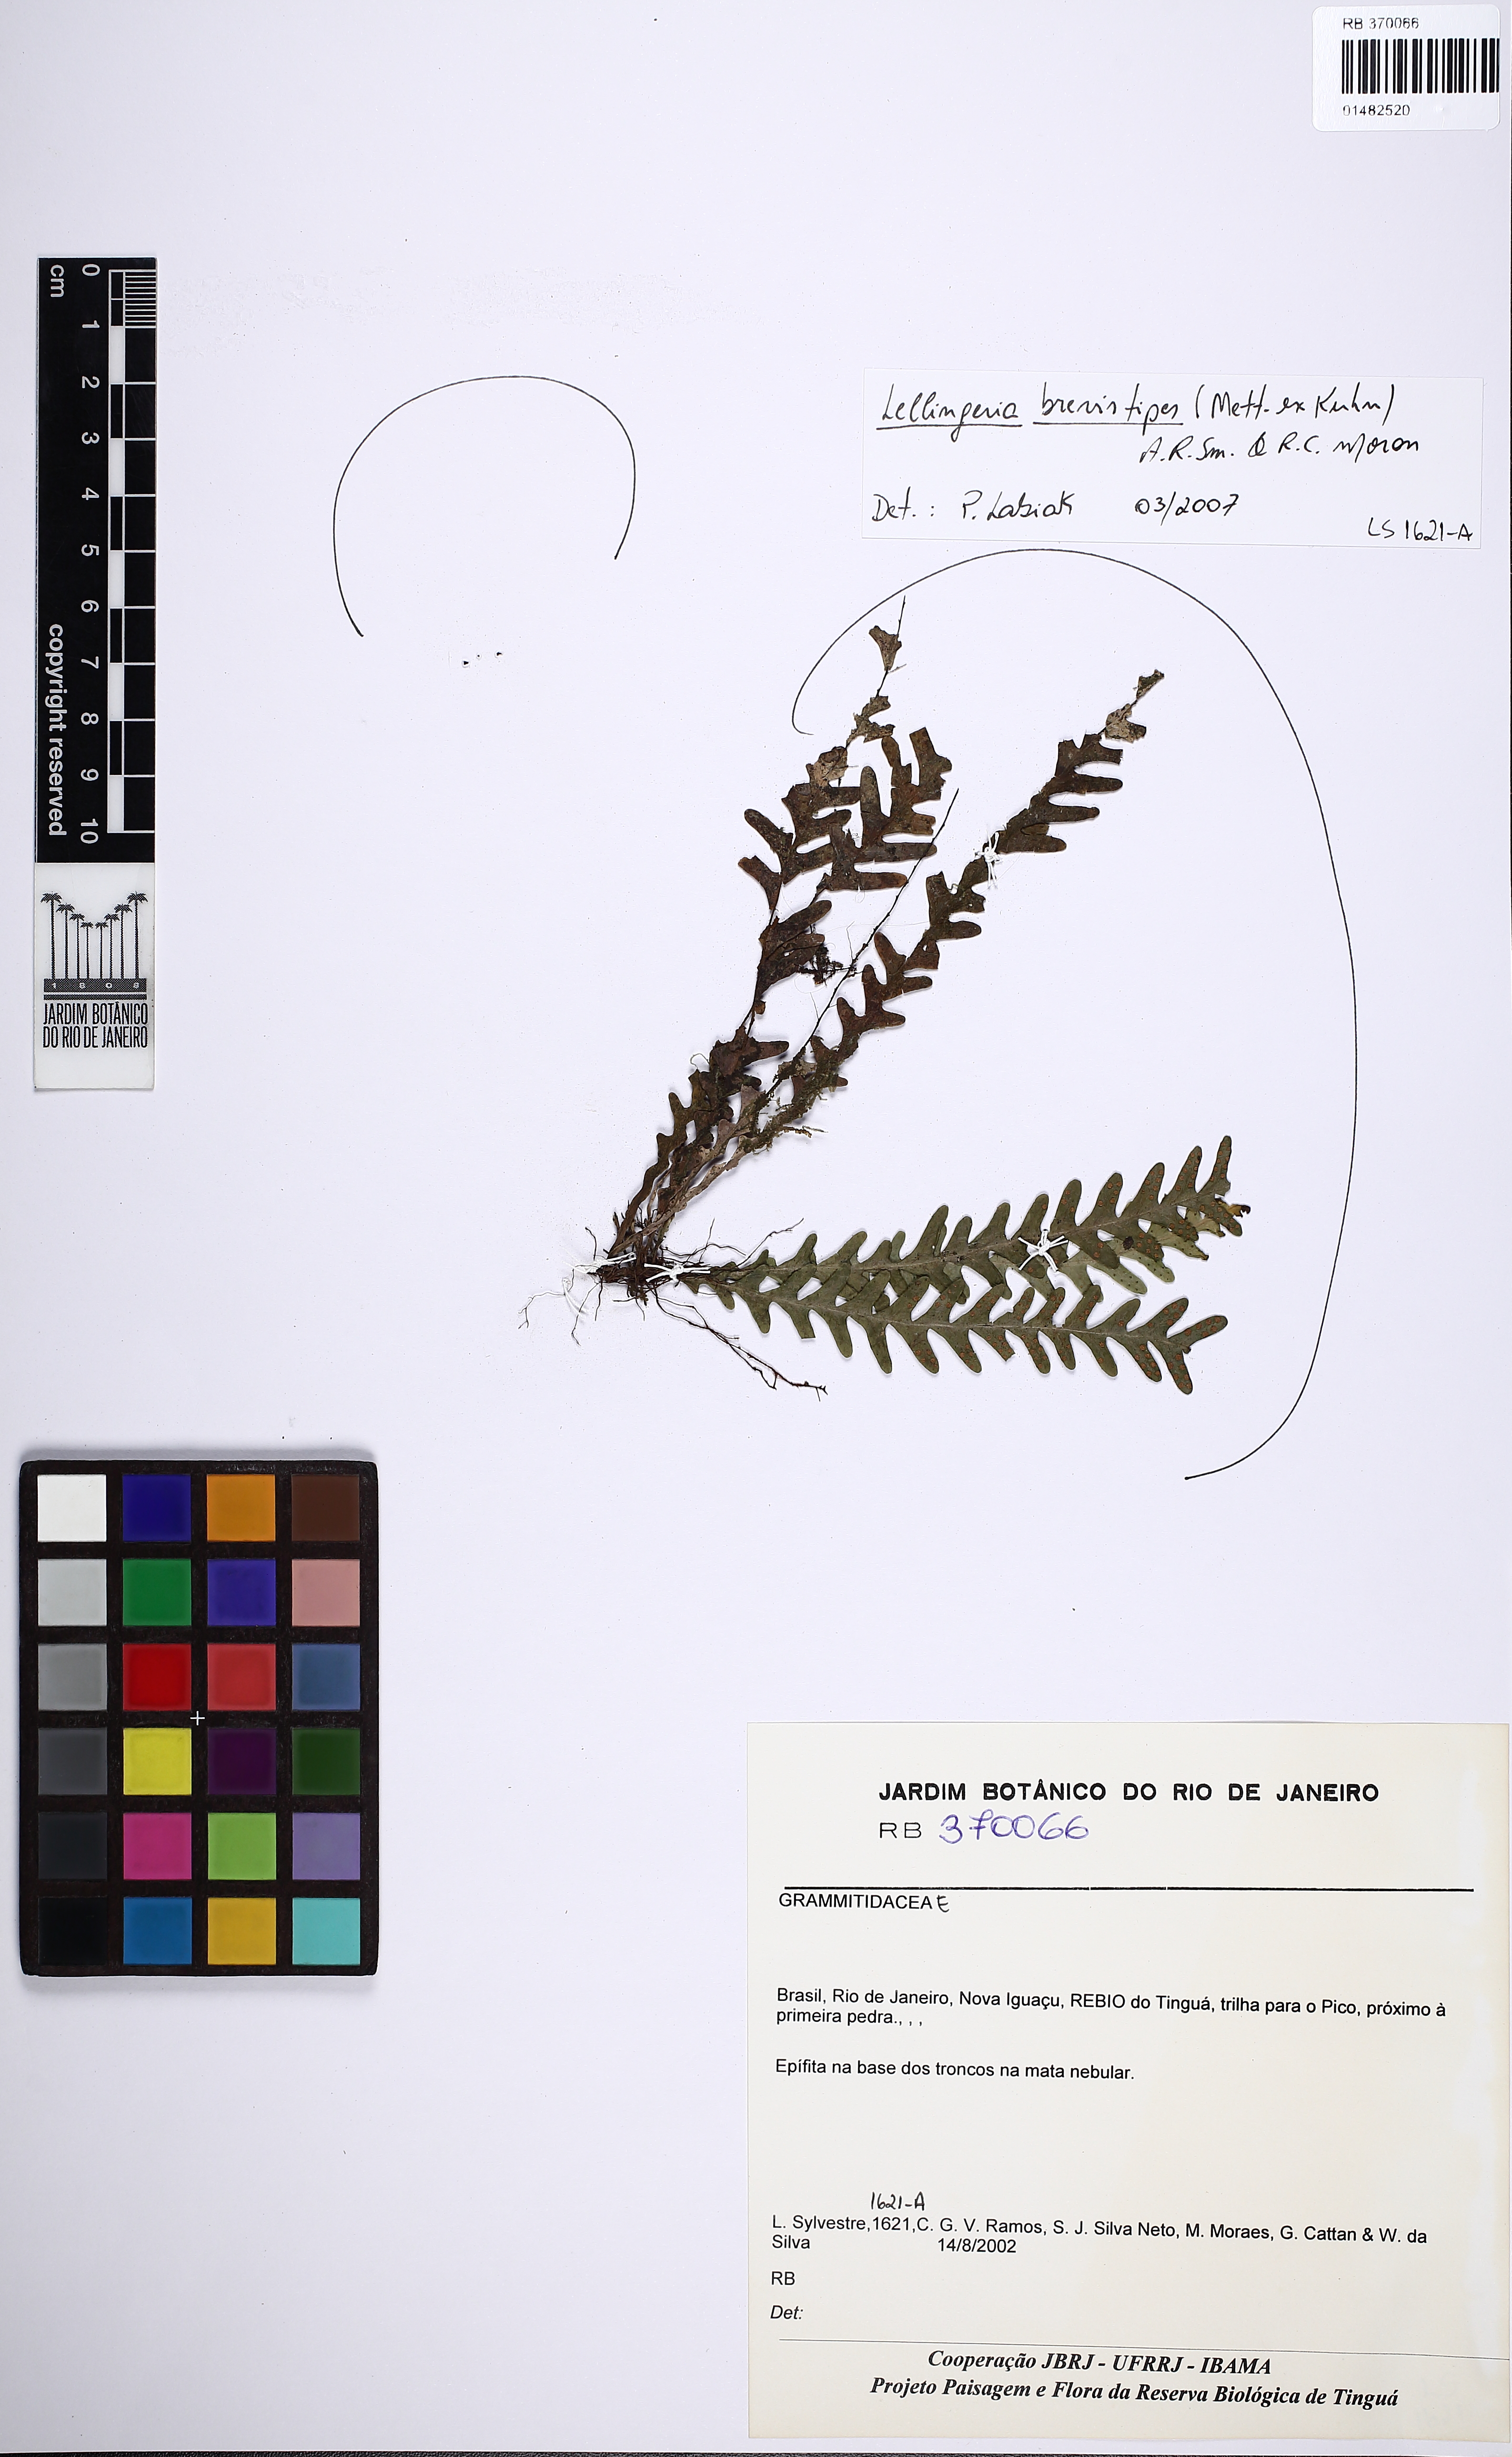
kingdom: Plantae
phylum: Tracheophyta
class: Polypodiopsida
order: Polypodiales
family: Polypodiaceae
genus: Lellingeria
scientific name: Lellingeria brevistipes
